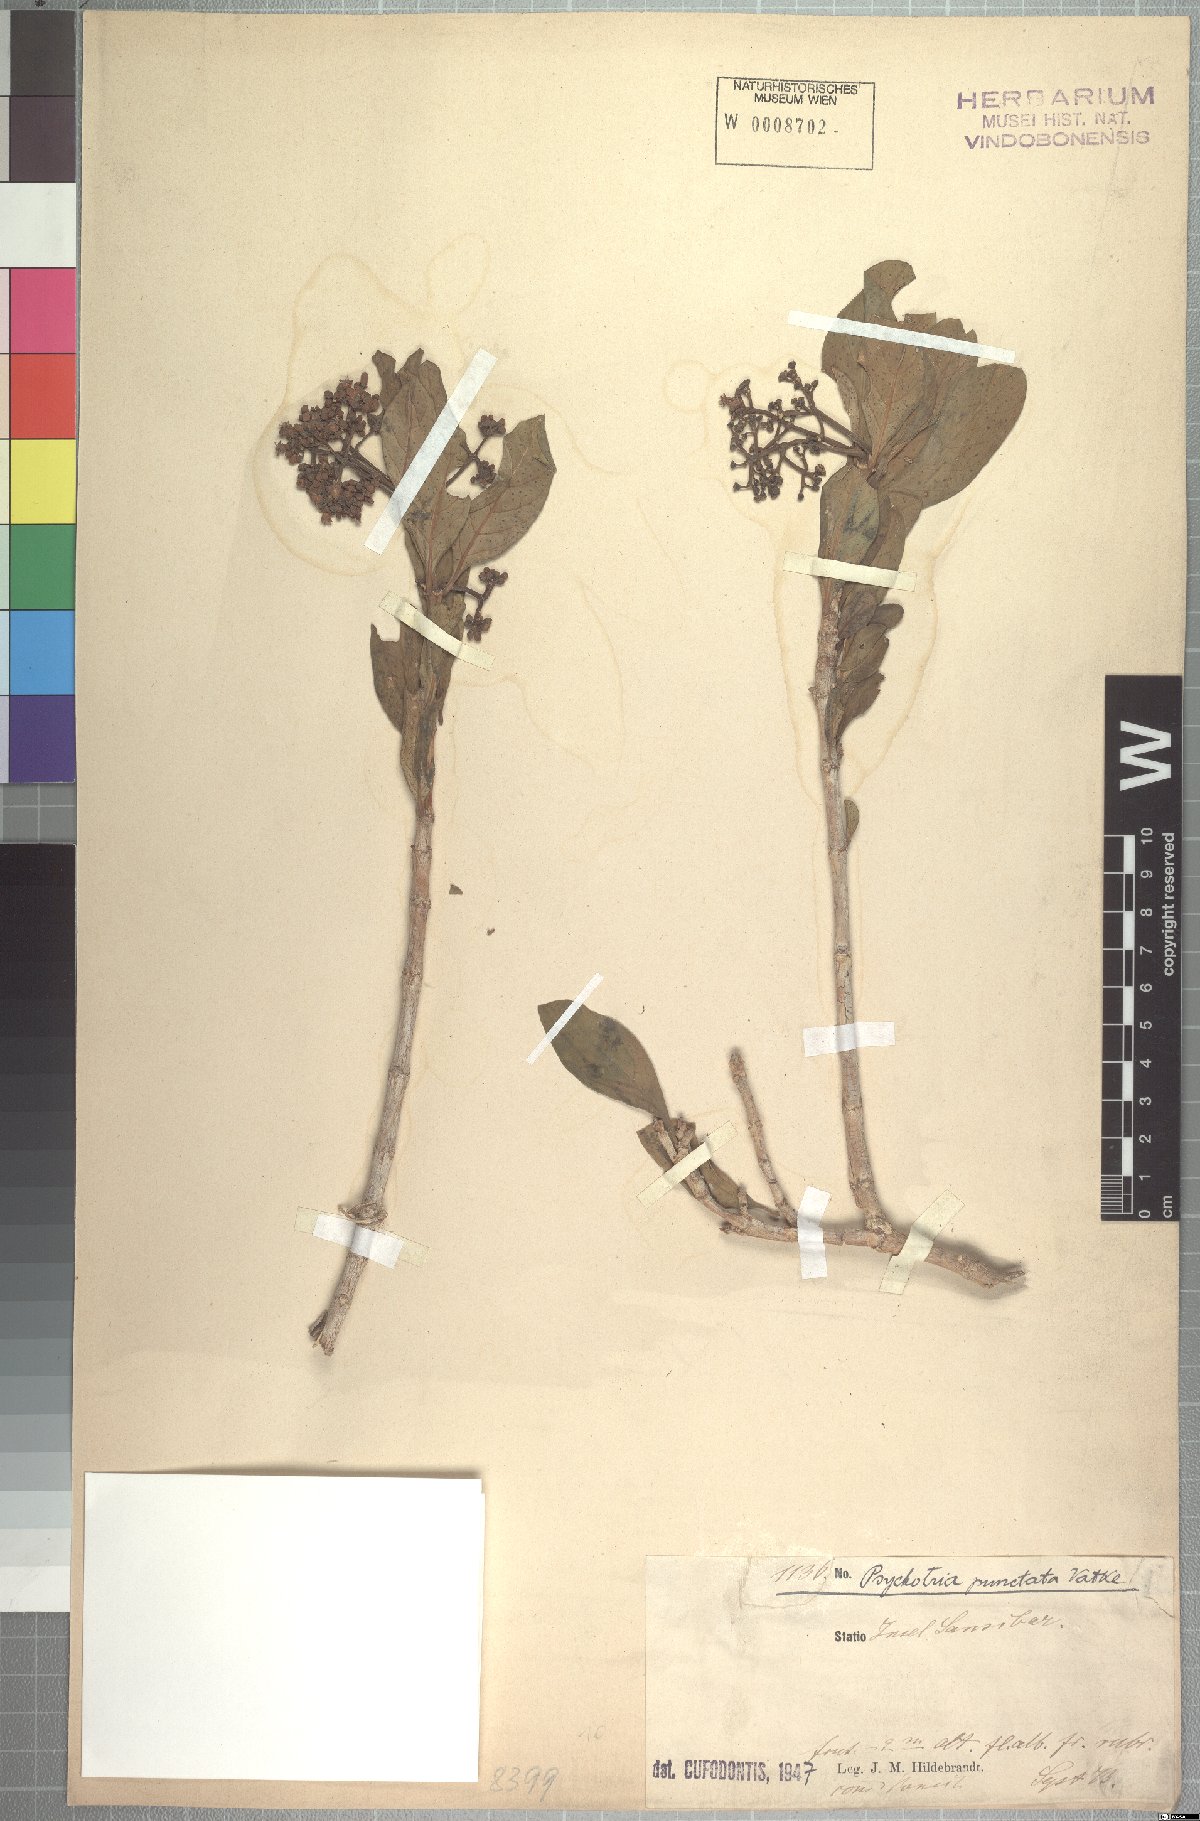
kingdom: Plantae
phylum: Tracheophyta
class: Magnoliopsida
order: Gentianales
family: Rubiaceae
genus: Psychotria
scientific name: Psychotria punctata
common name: Dotted wild coffee
